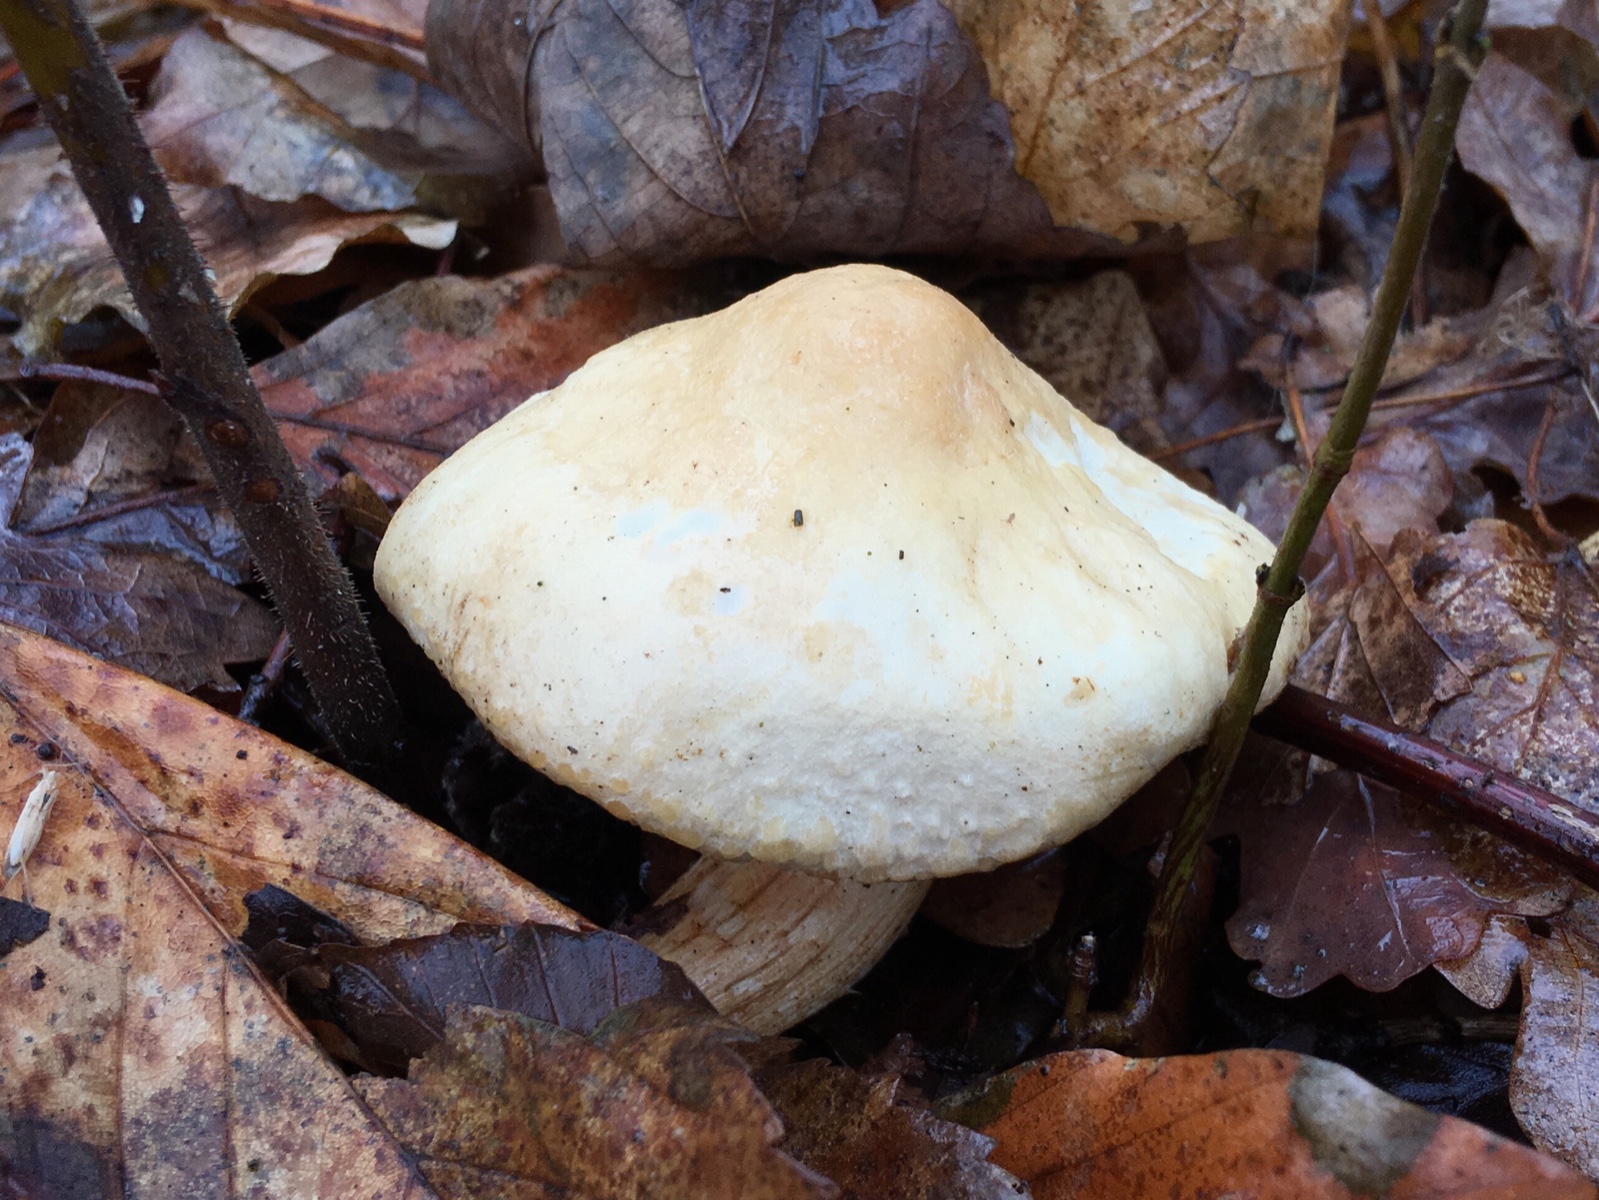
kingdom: Fungi
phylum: Basidiomycota
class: Agaricomycetes
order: Agaricales
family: Tricholomataceae
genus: Tricholoma
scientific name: Tricholoma album
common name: honning-ridderhat
